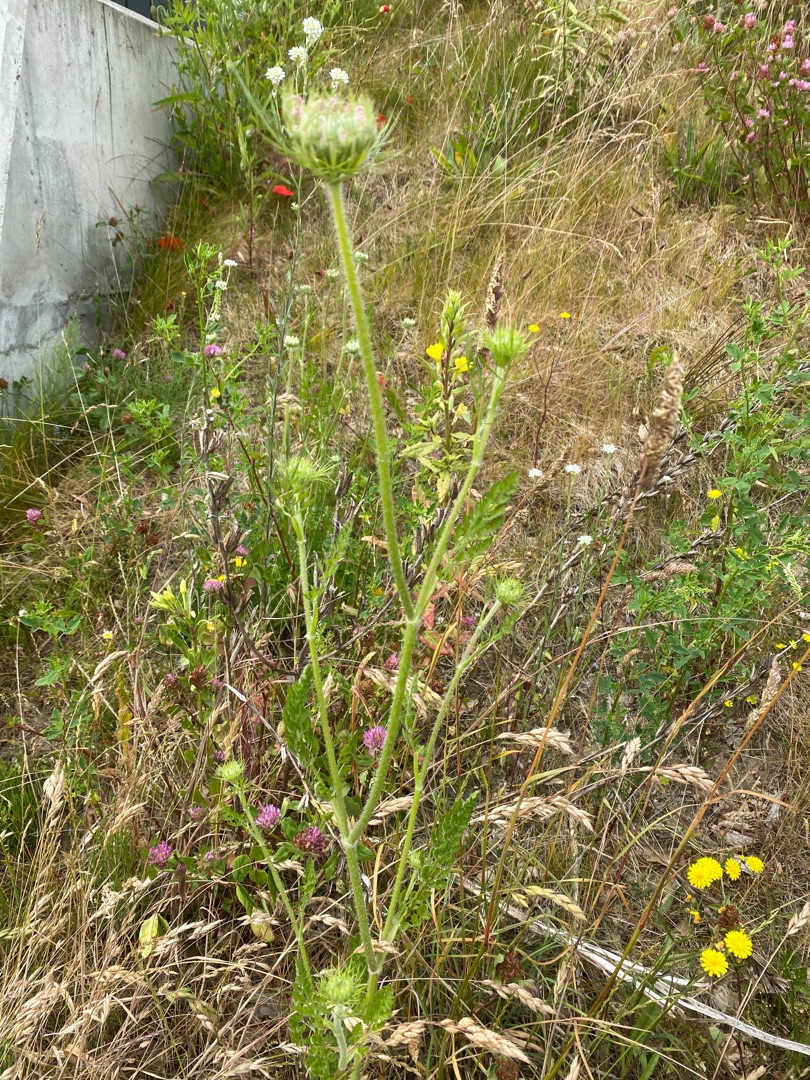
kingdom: Plantae
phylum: Tracheophyta
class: Magnoliopsida
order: Apiales
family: Apiaceae
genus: Daucus
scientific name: Daucus carota
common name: Vild gulerod
